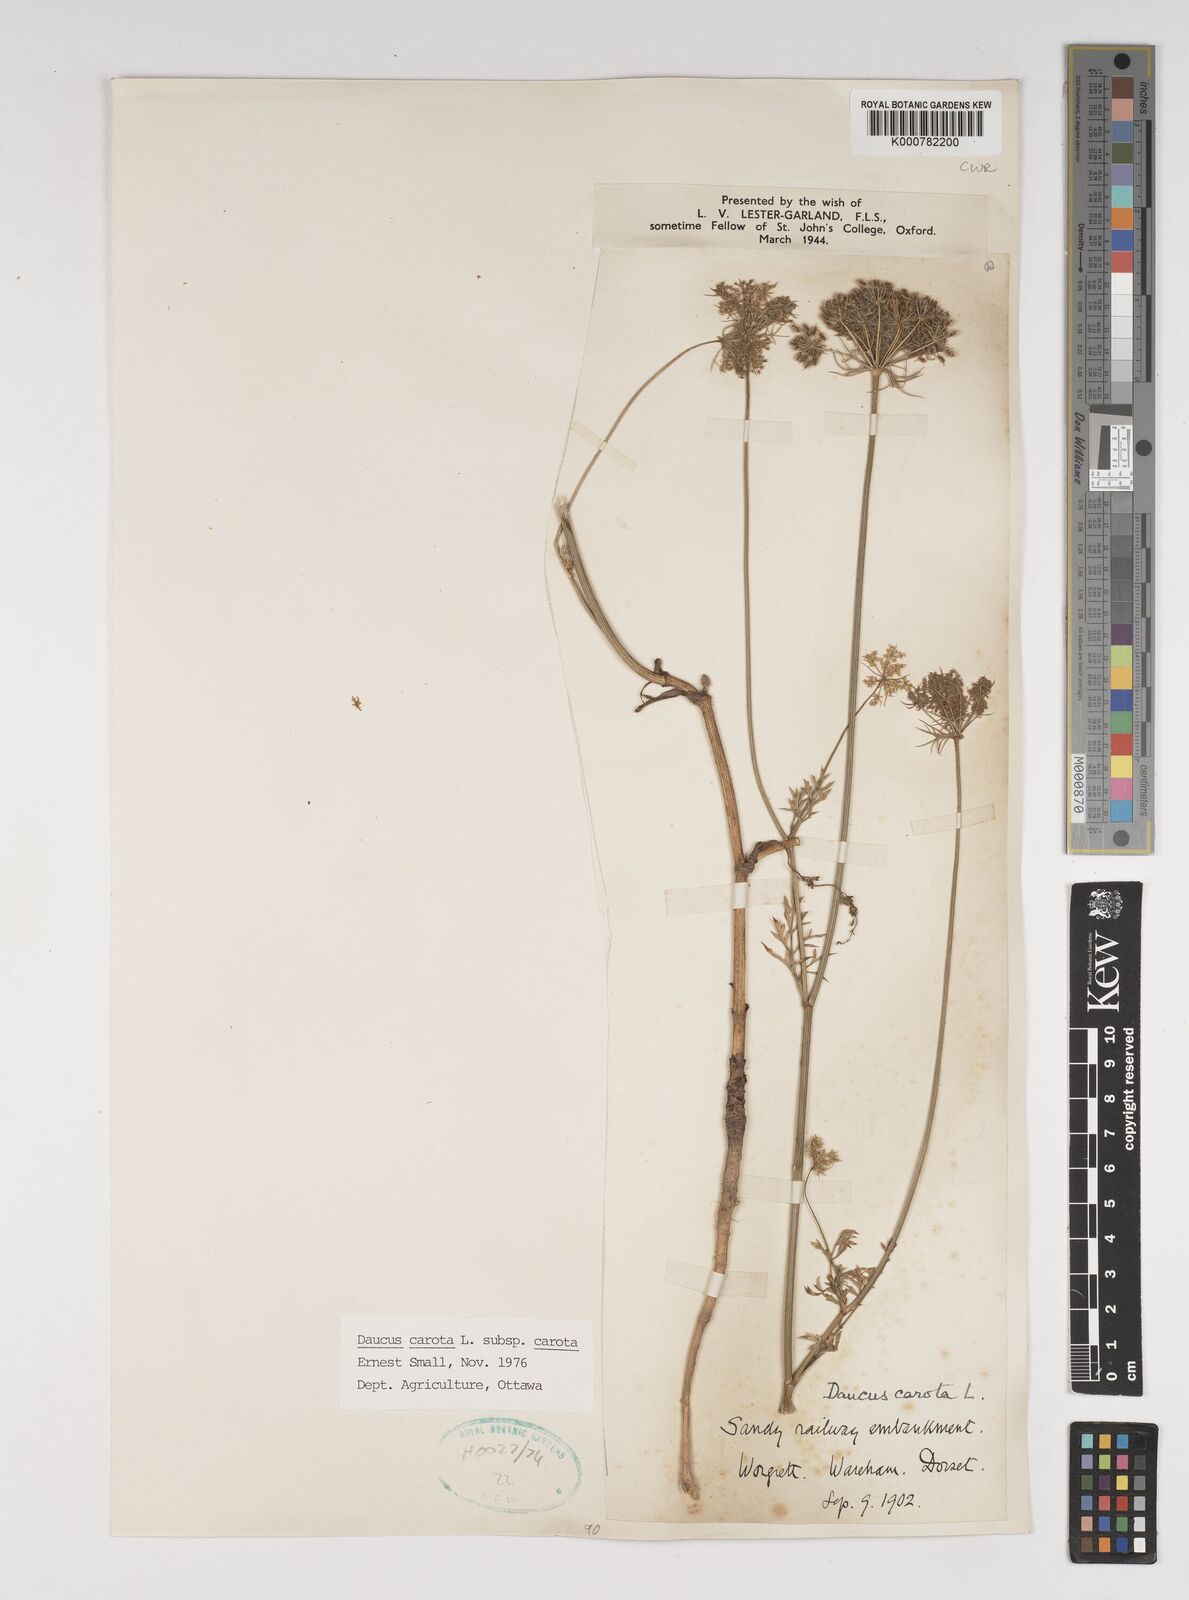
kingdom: Plantae
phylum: Tracheophyta
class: Magnoliopsida
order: Apiales
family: Apiaceae
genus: Daucus
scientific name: Daucus carota
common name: Wild carrot
